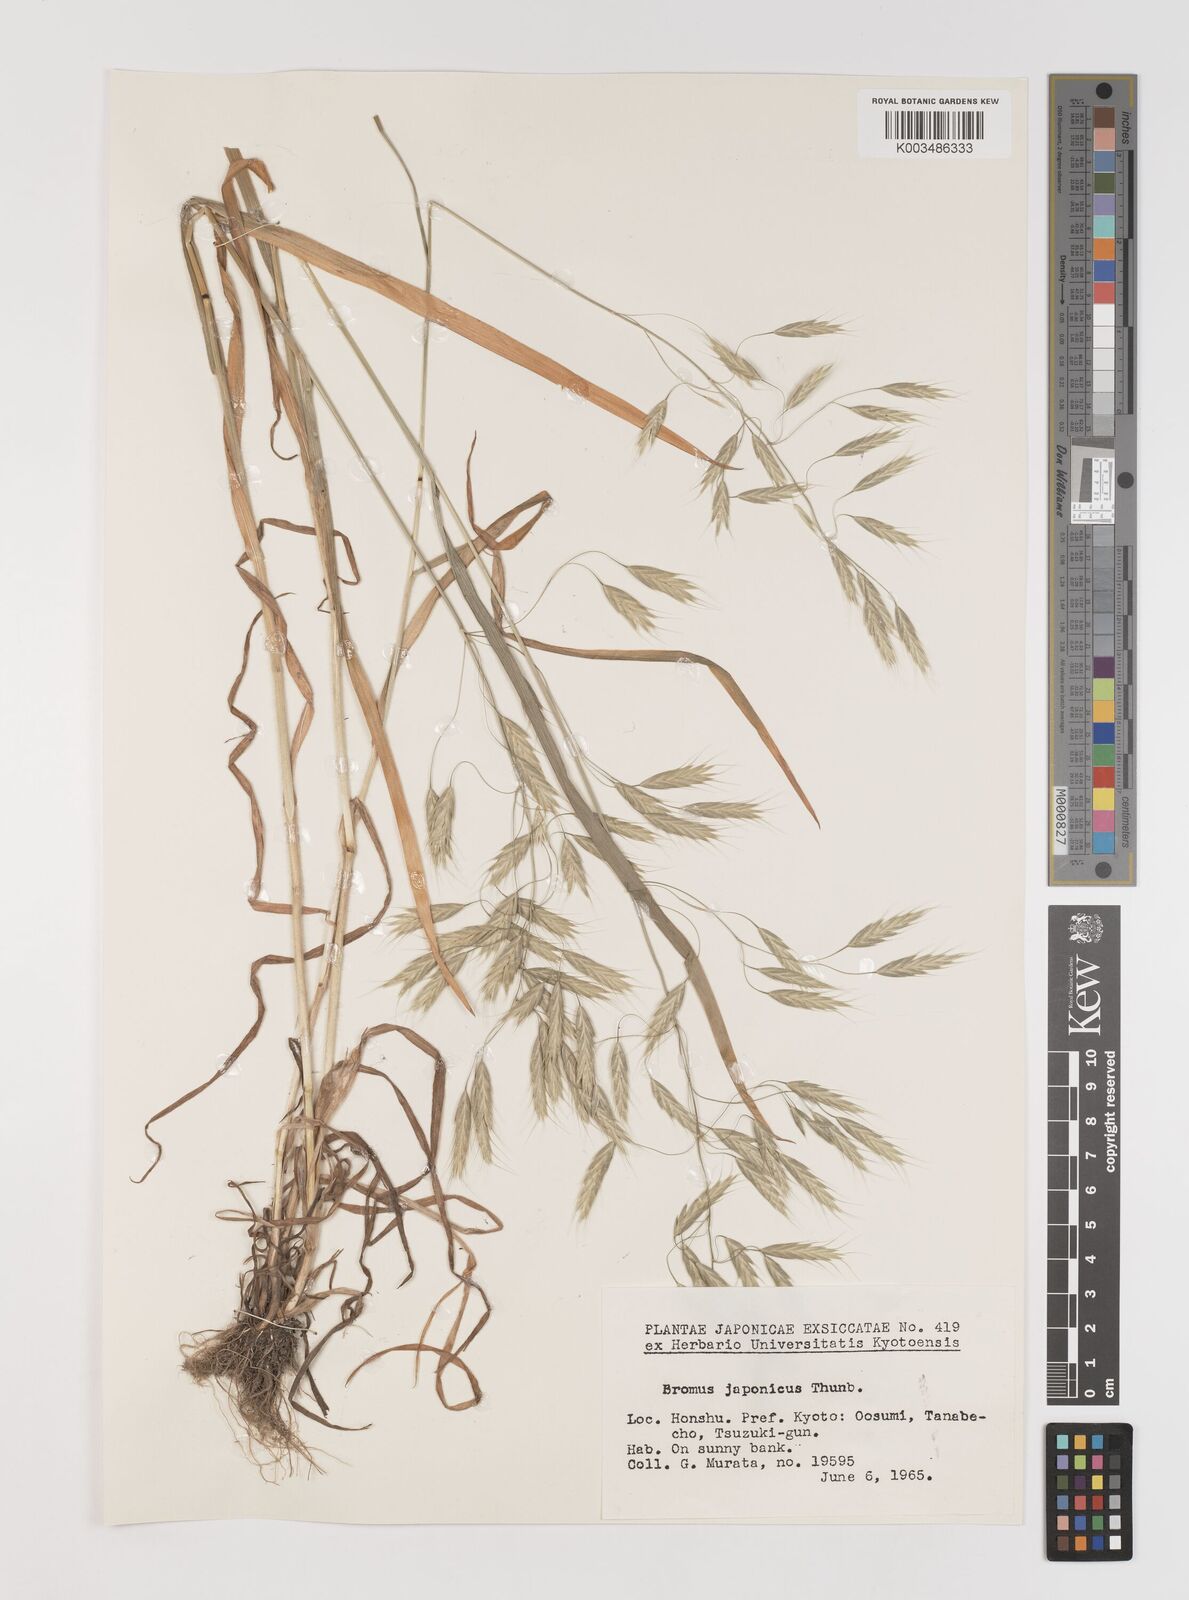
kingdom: Plantae
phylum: Tracheophyta
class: Liliopsida
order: Poales
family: Poaceae
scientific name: Poaceae
